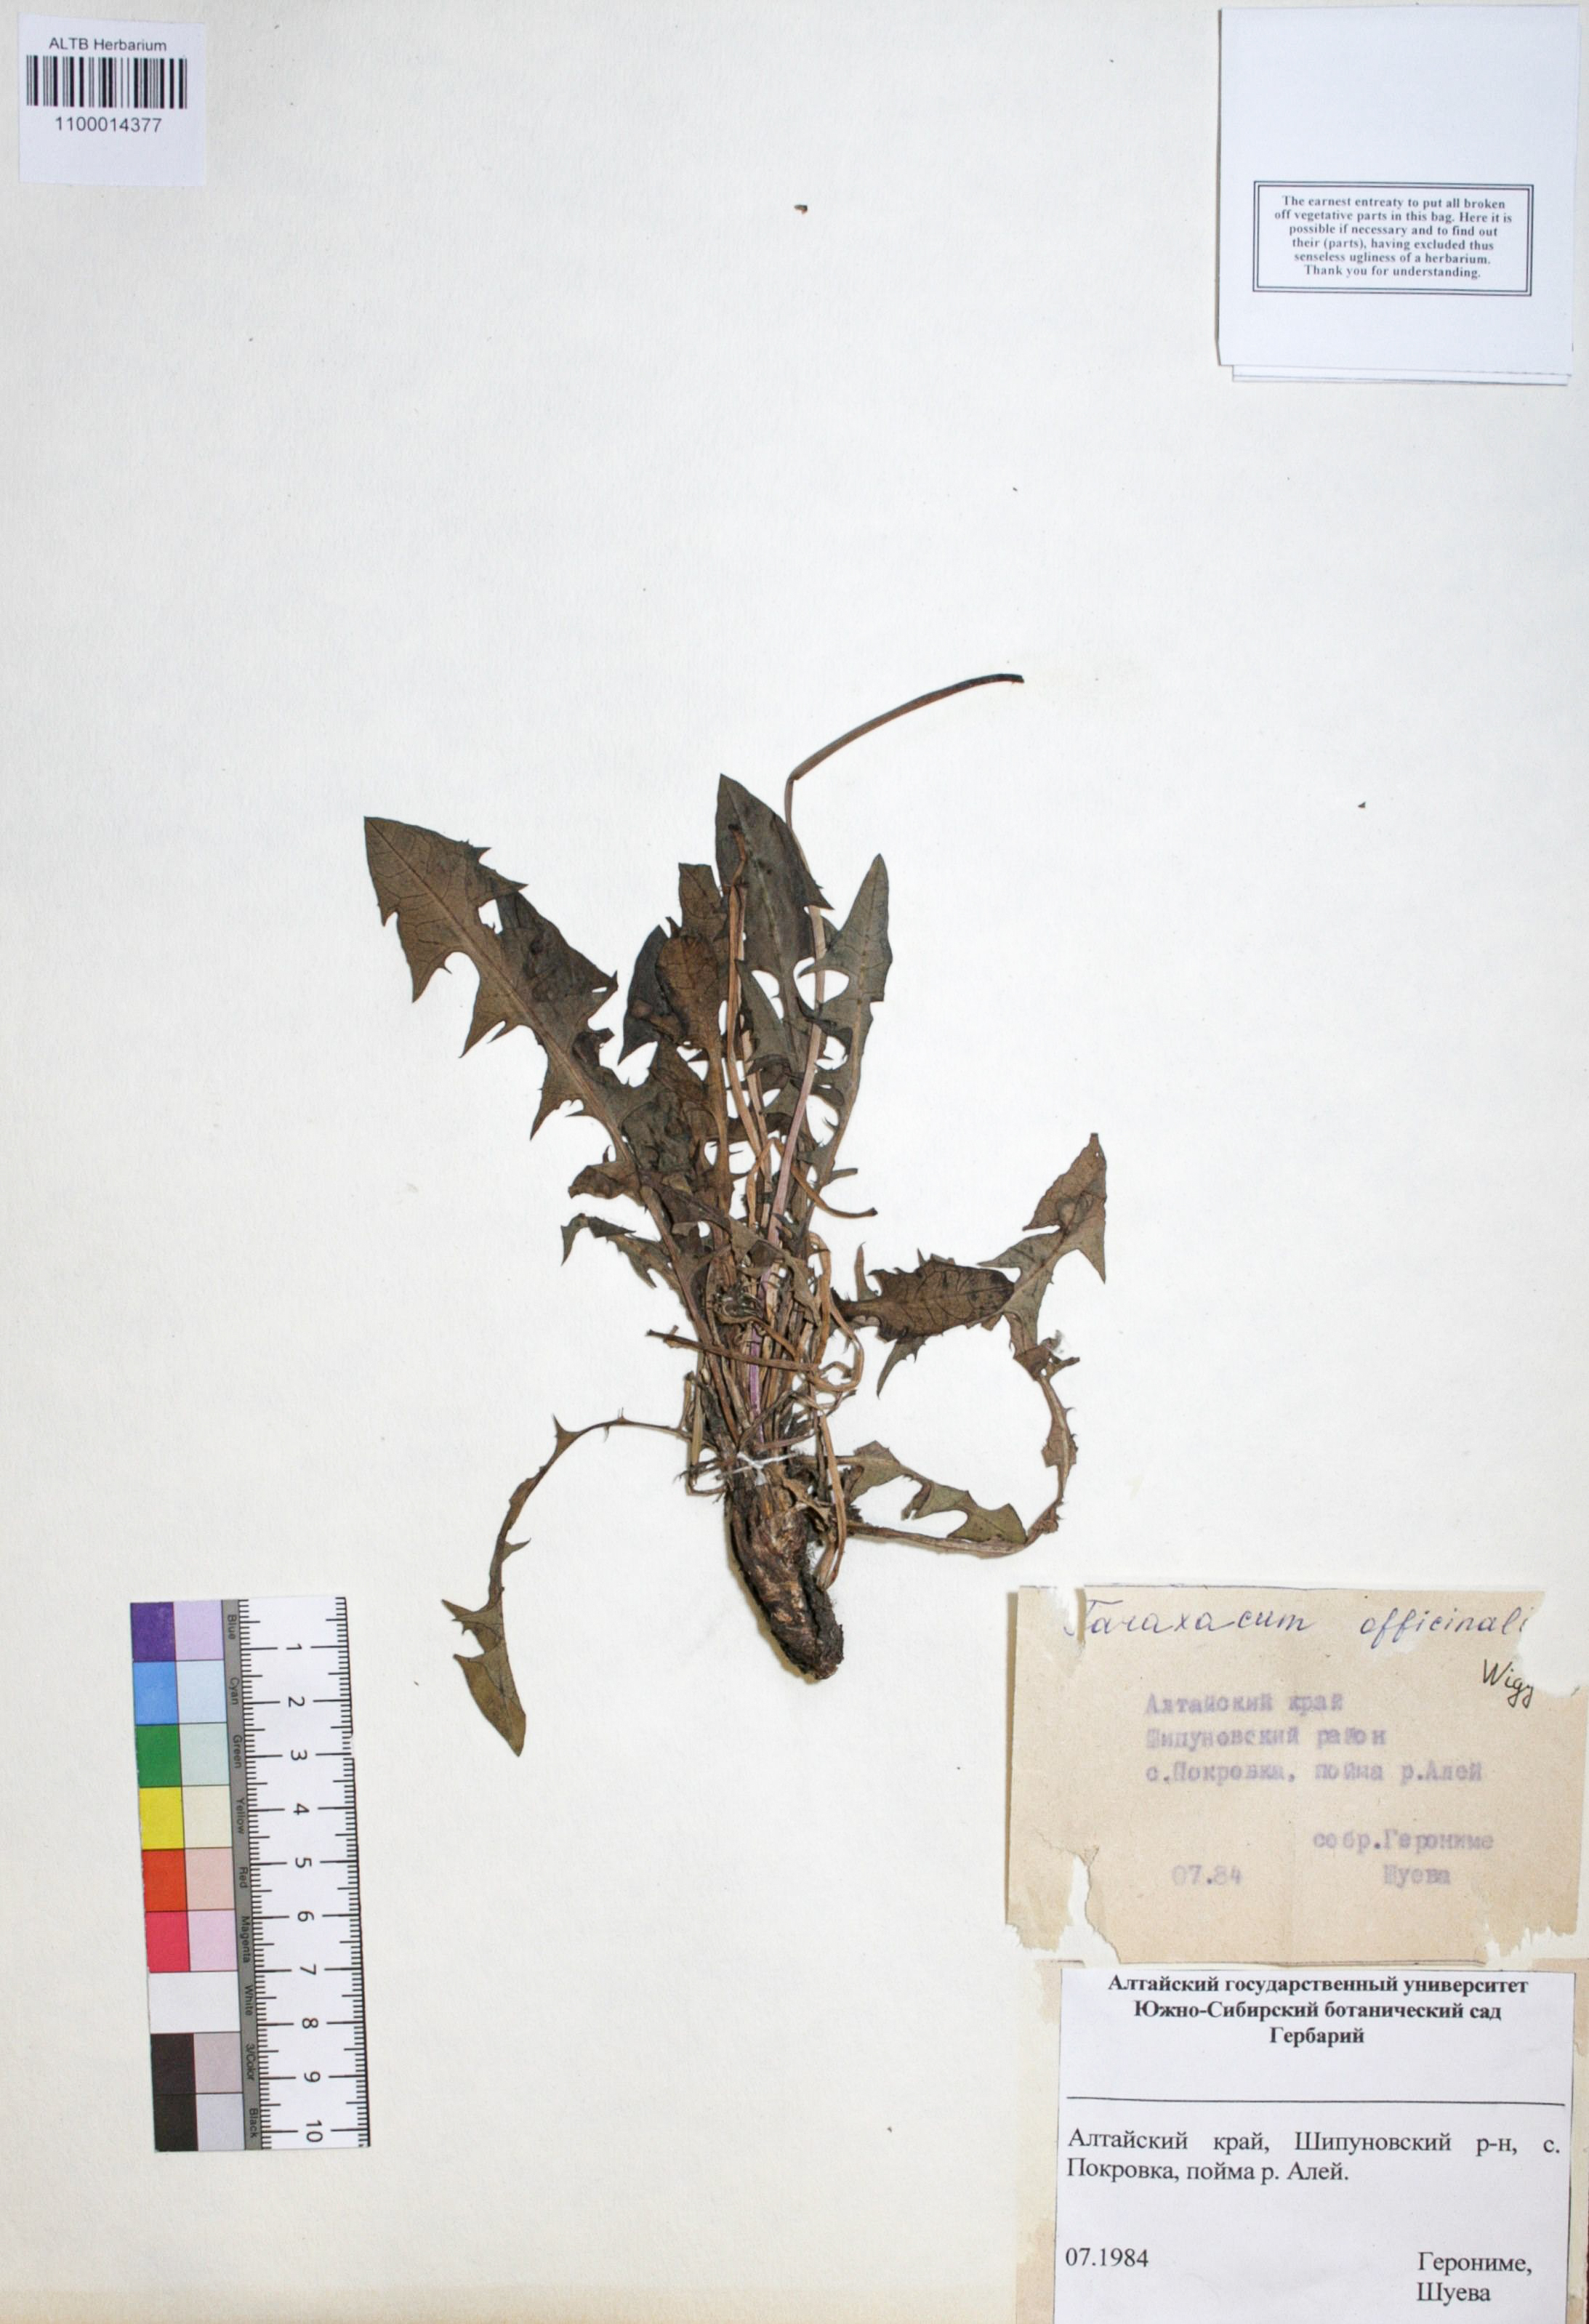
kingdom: Plantae
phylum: Tracheophyta
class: Magnoliopsida
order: Asterales
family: Asteraceae
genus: Taraxacum
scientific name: Taraxacum officinale
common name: Common dandelion
